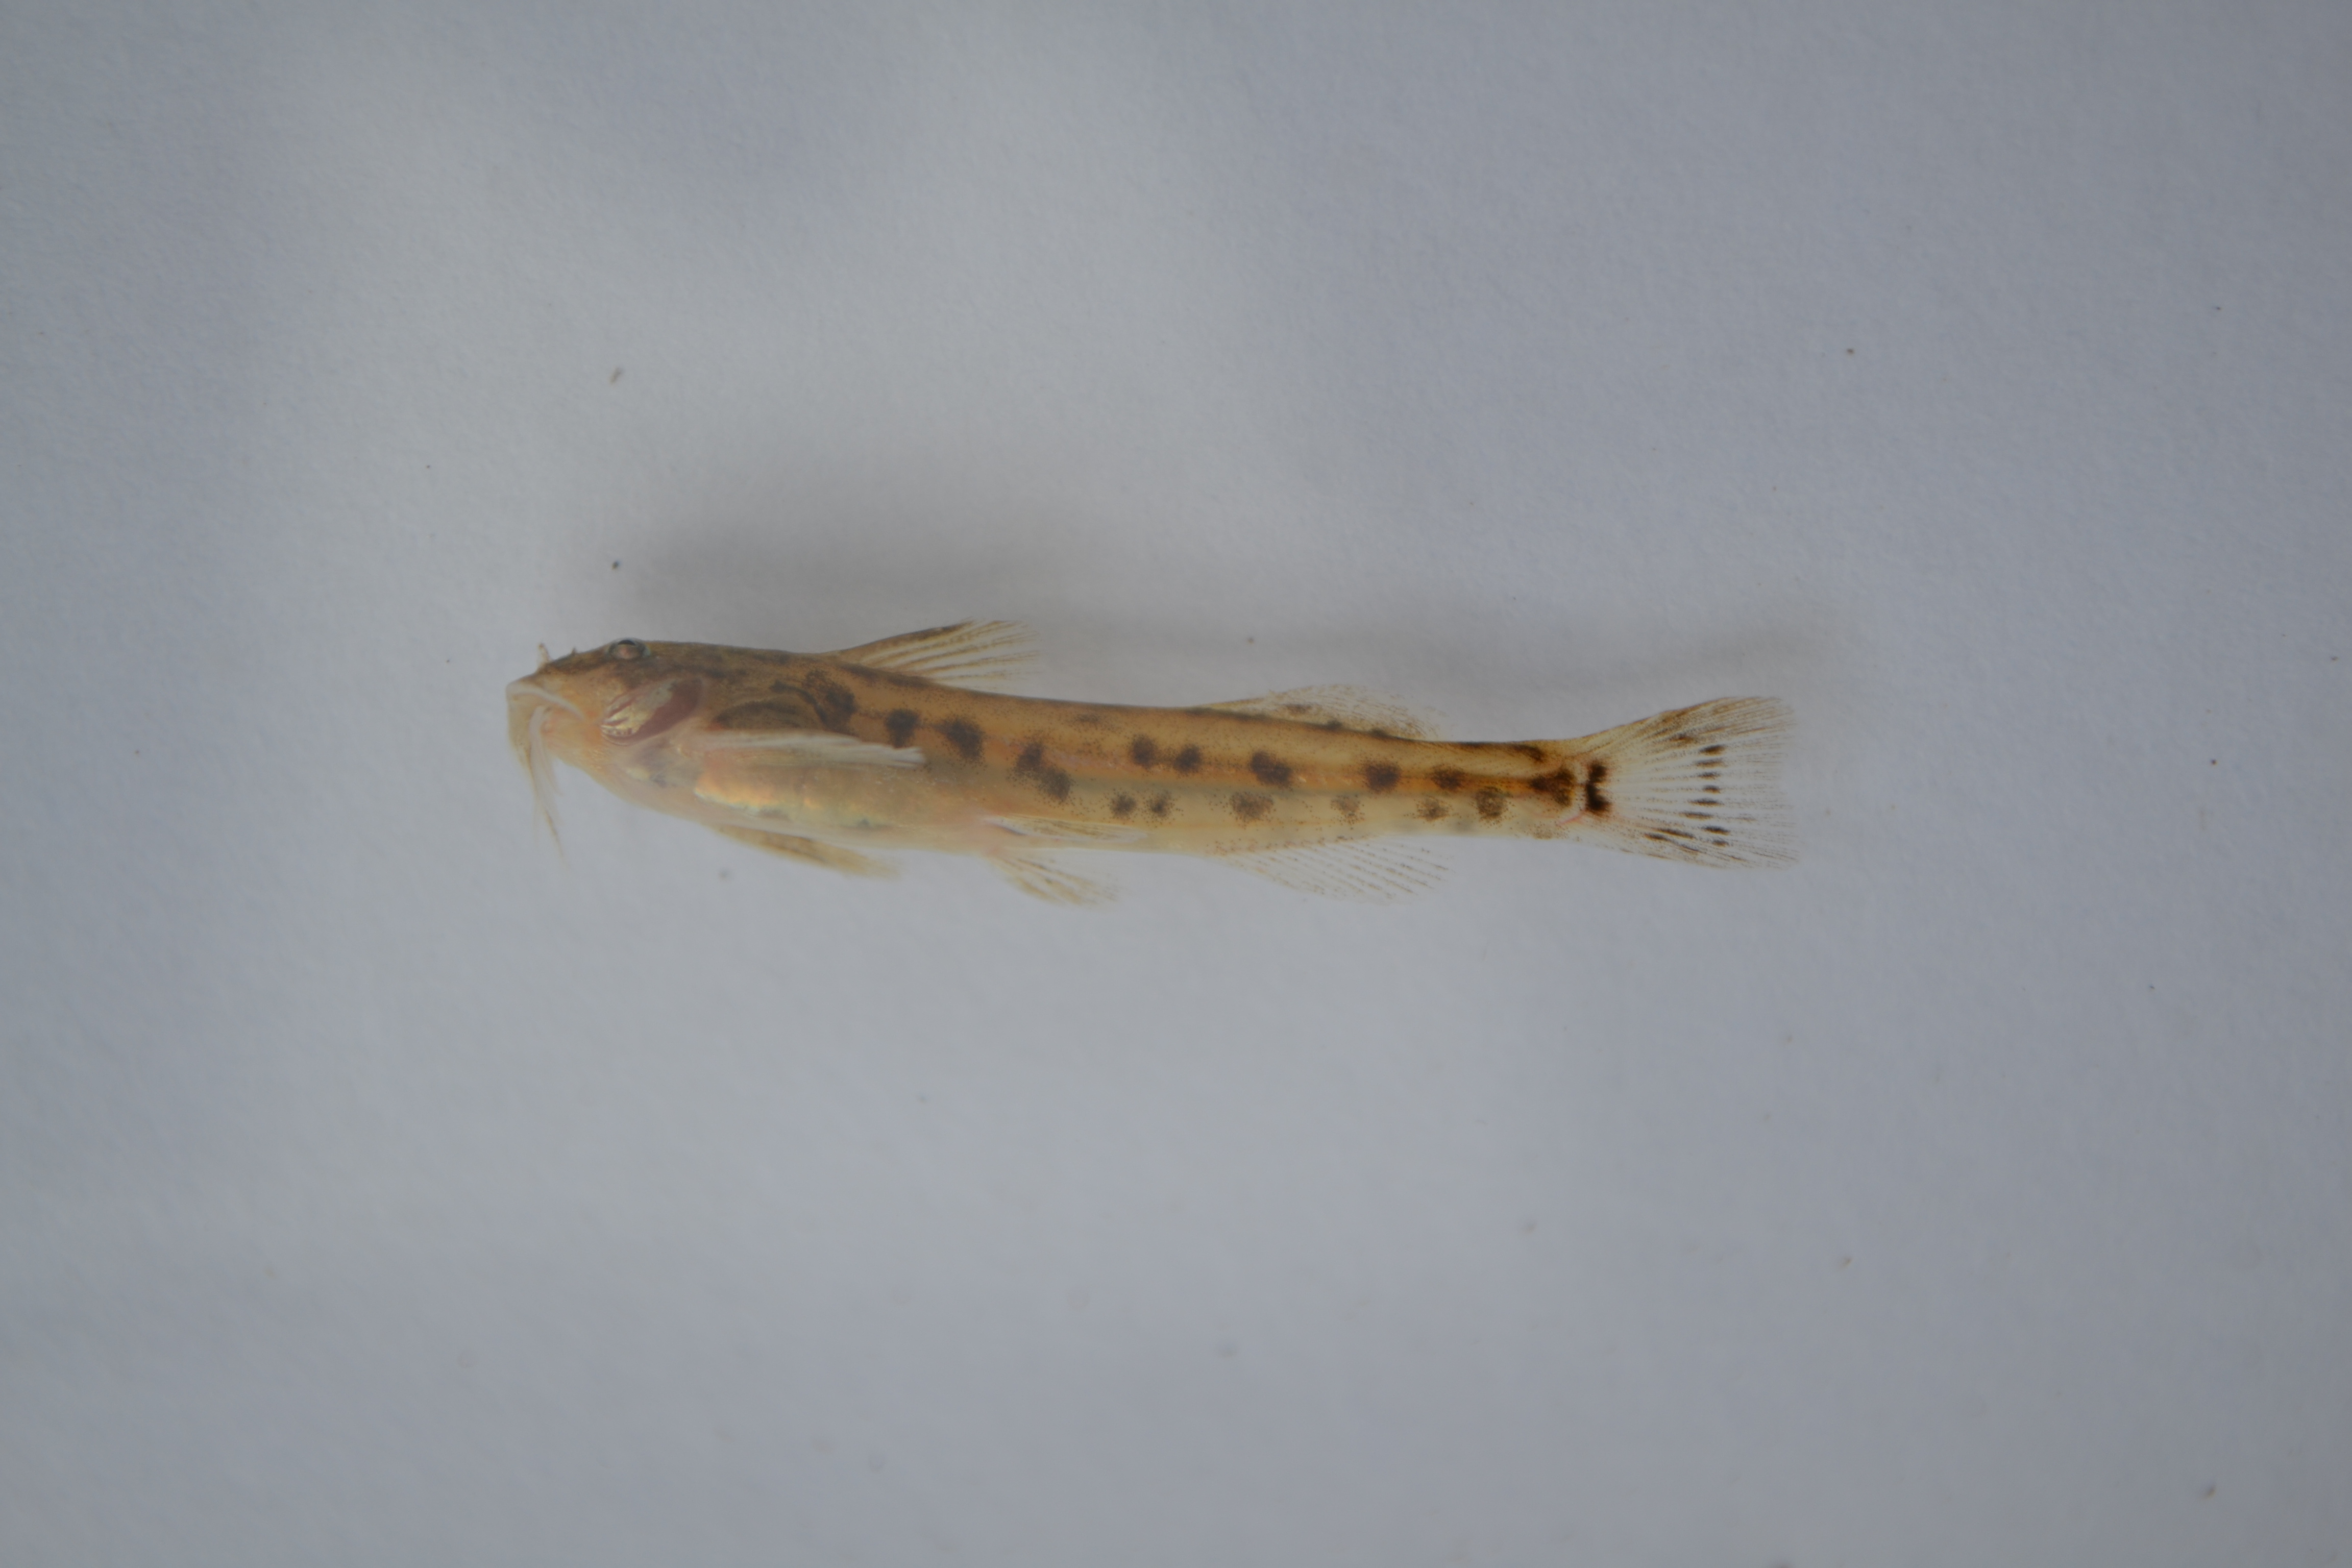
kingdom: Animalia
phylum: Chordata
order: Siluriformes
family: Amphiliidae
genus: Zaireichthys
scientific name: Zaireichthys
